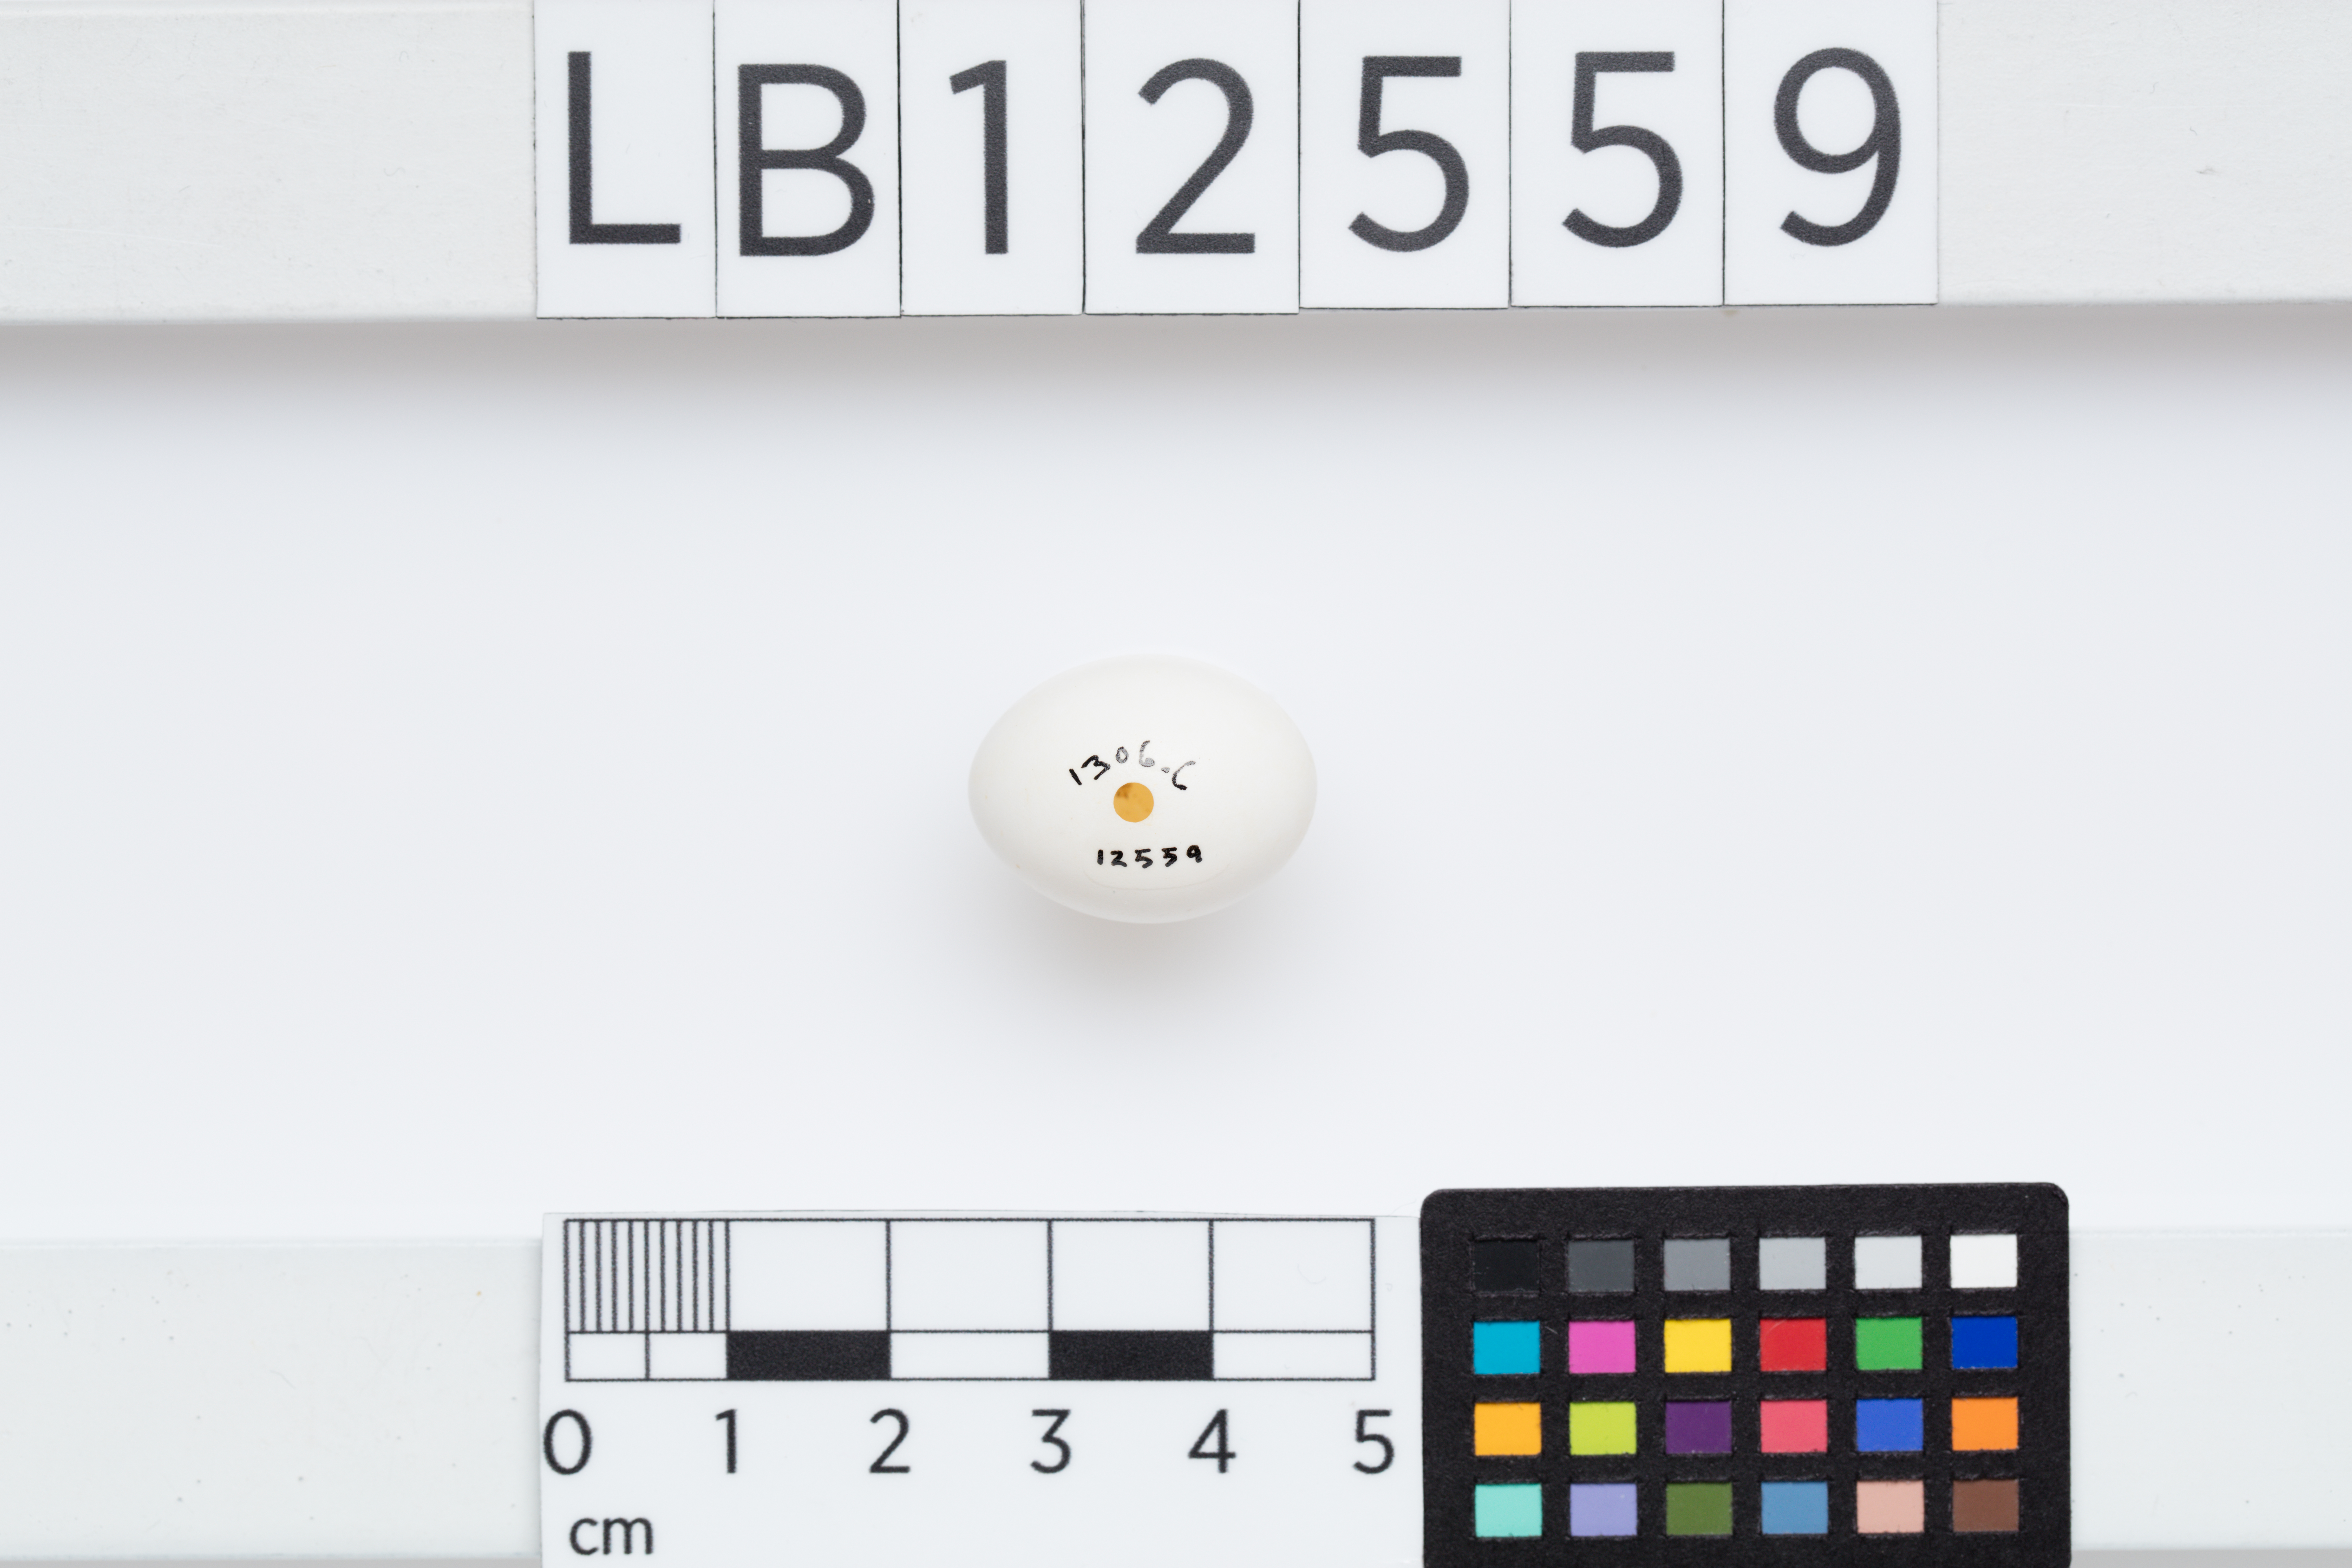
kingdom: Animalia
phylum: Chordata
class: Aves
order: Psittaciformes
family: Psittacidae
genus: Neopsephotus
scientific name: Neopsephotus bourkii
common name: Bourke's parrot
